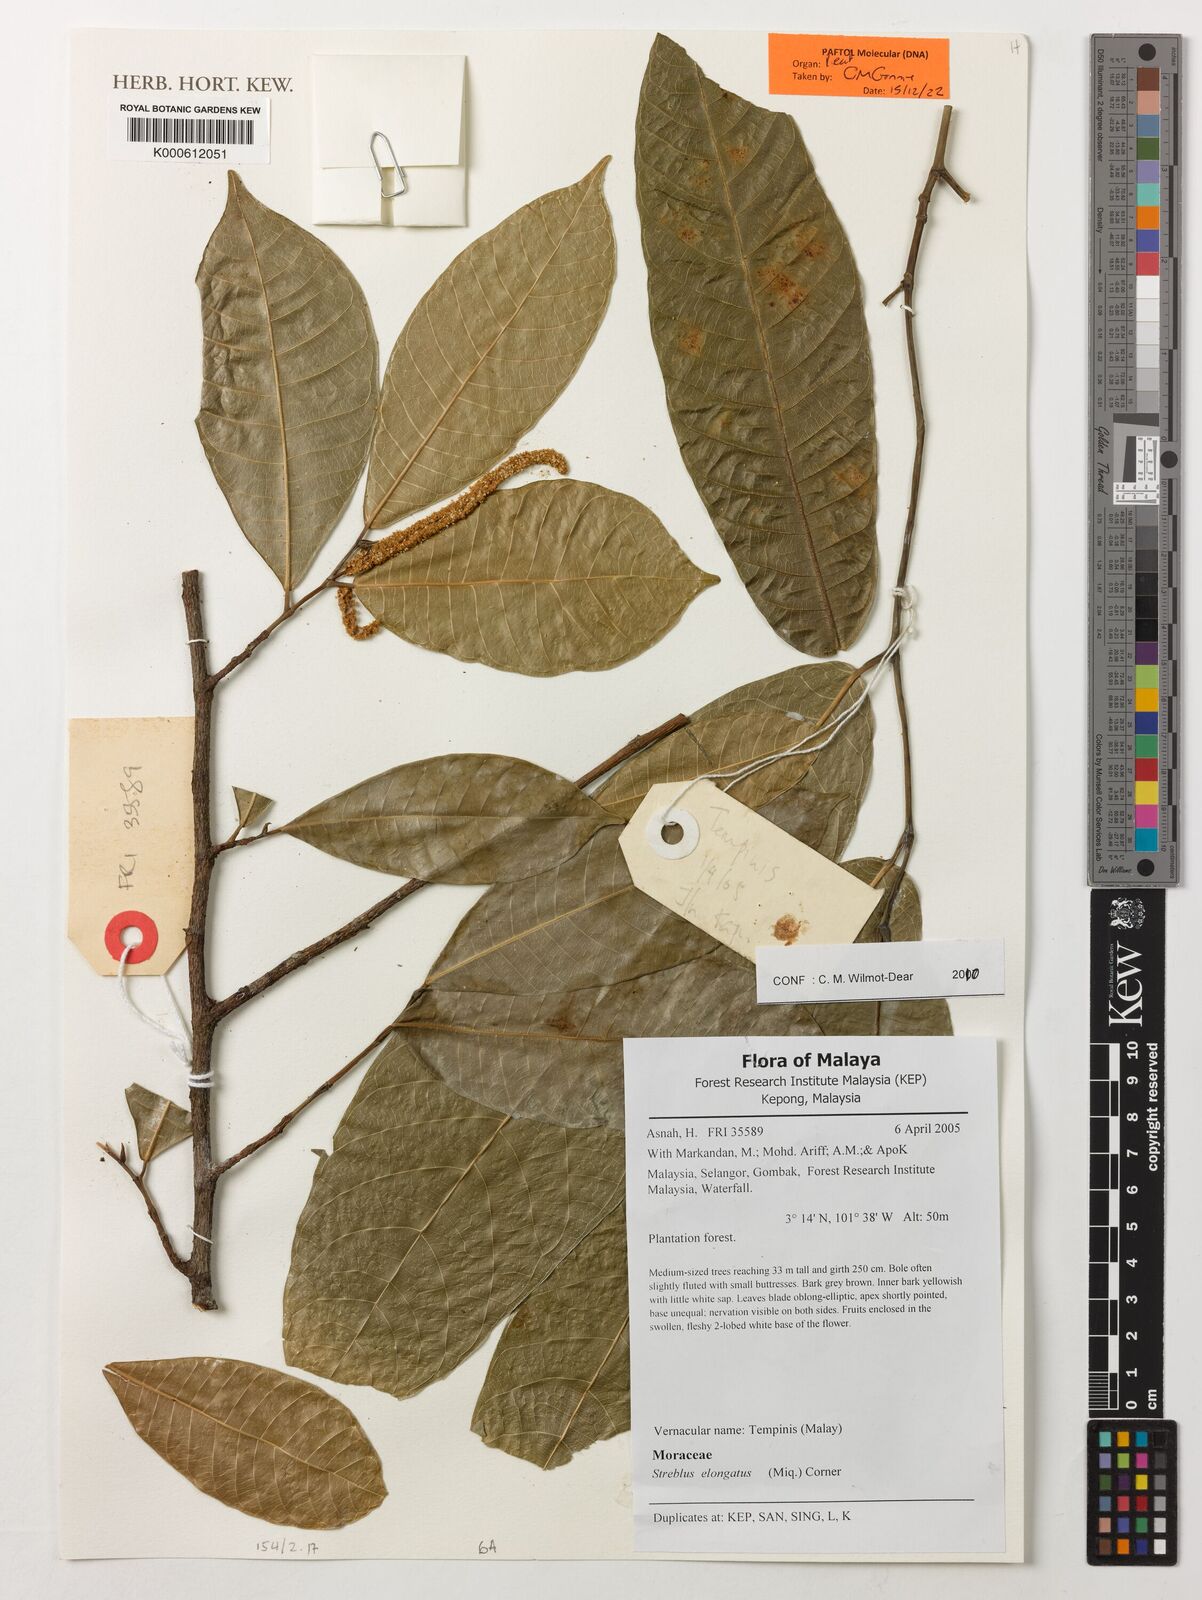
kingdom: Plantae
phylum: Tracheophyta
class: Magnoliopsida
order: Rosales
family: Moraceae
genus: Sloetia
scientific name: Sloetia elongata
